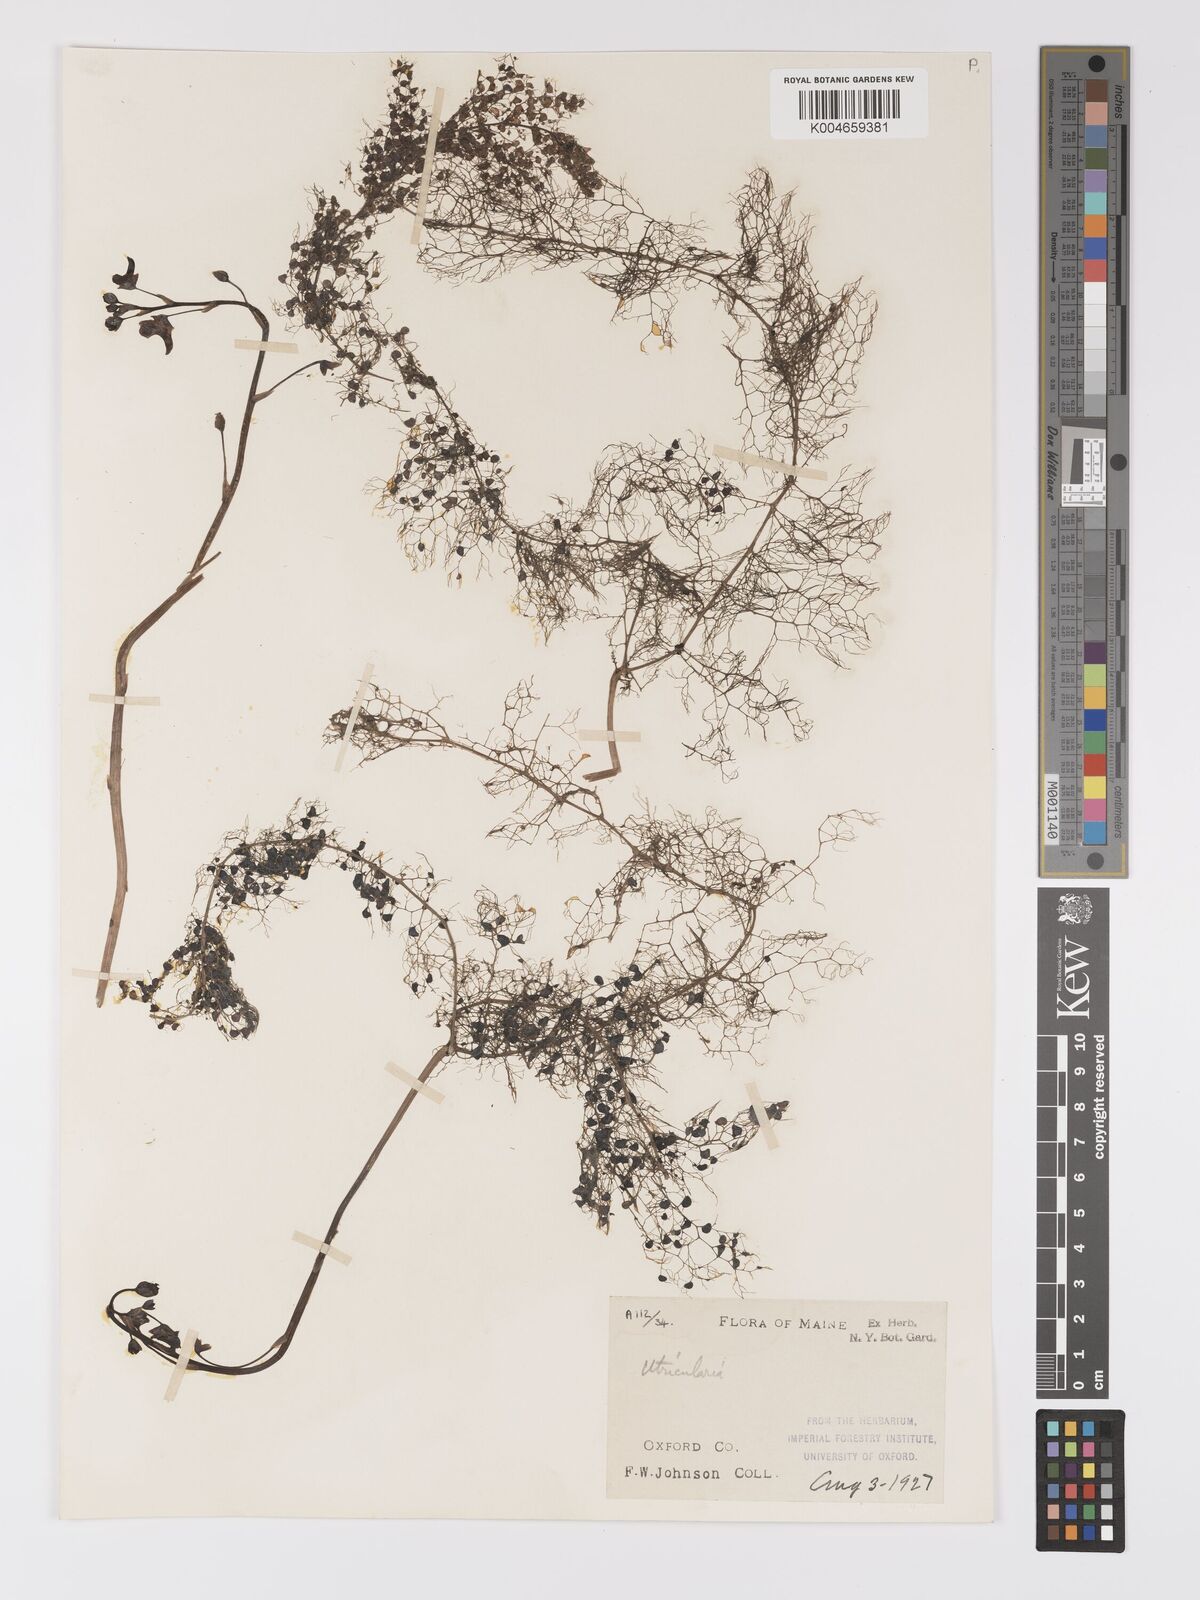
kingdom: Plantae
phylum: Tracheophyta
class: Magnoliopsida
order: Lamiales
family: Lentibulariaceae
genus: Utricularia
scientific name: Utricularia macrorhiza
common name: Common bladderwort
